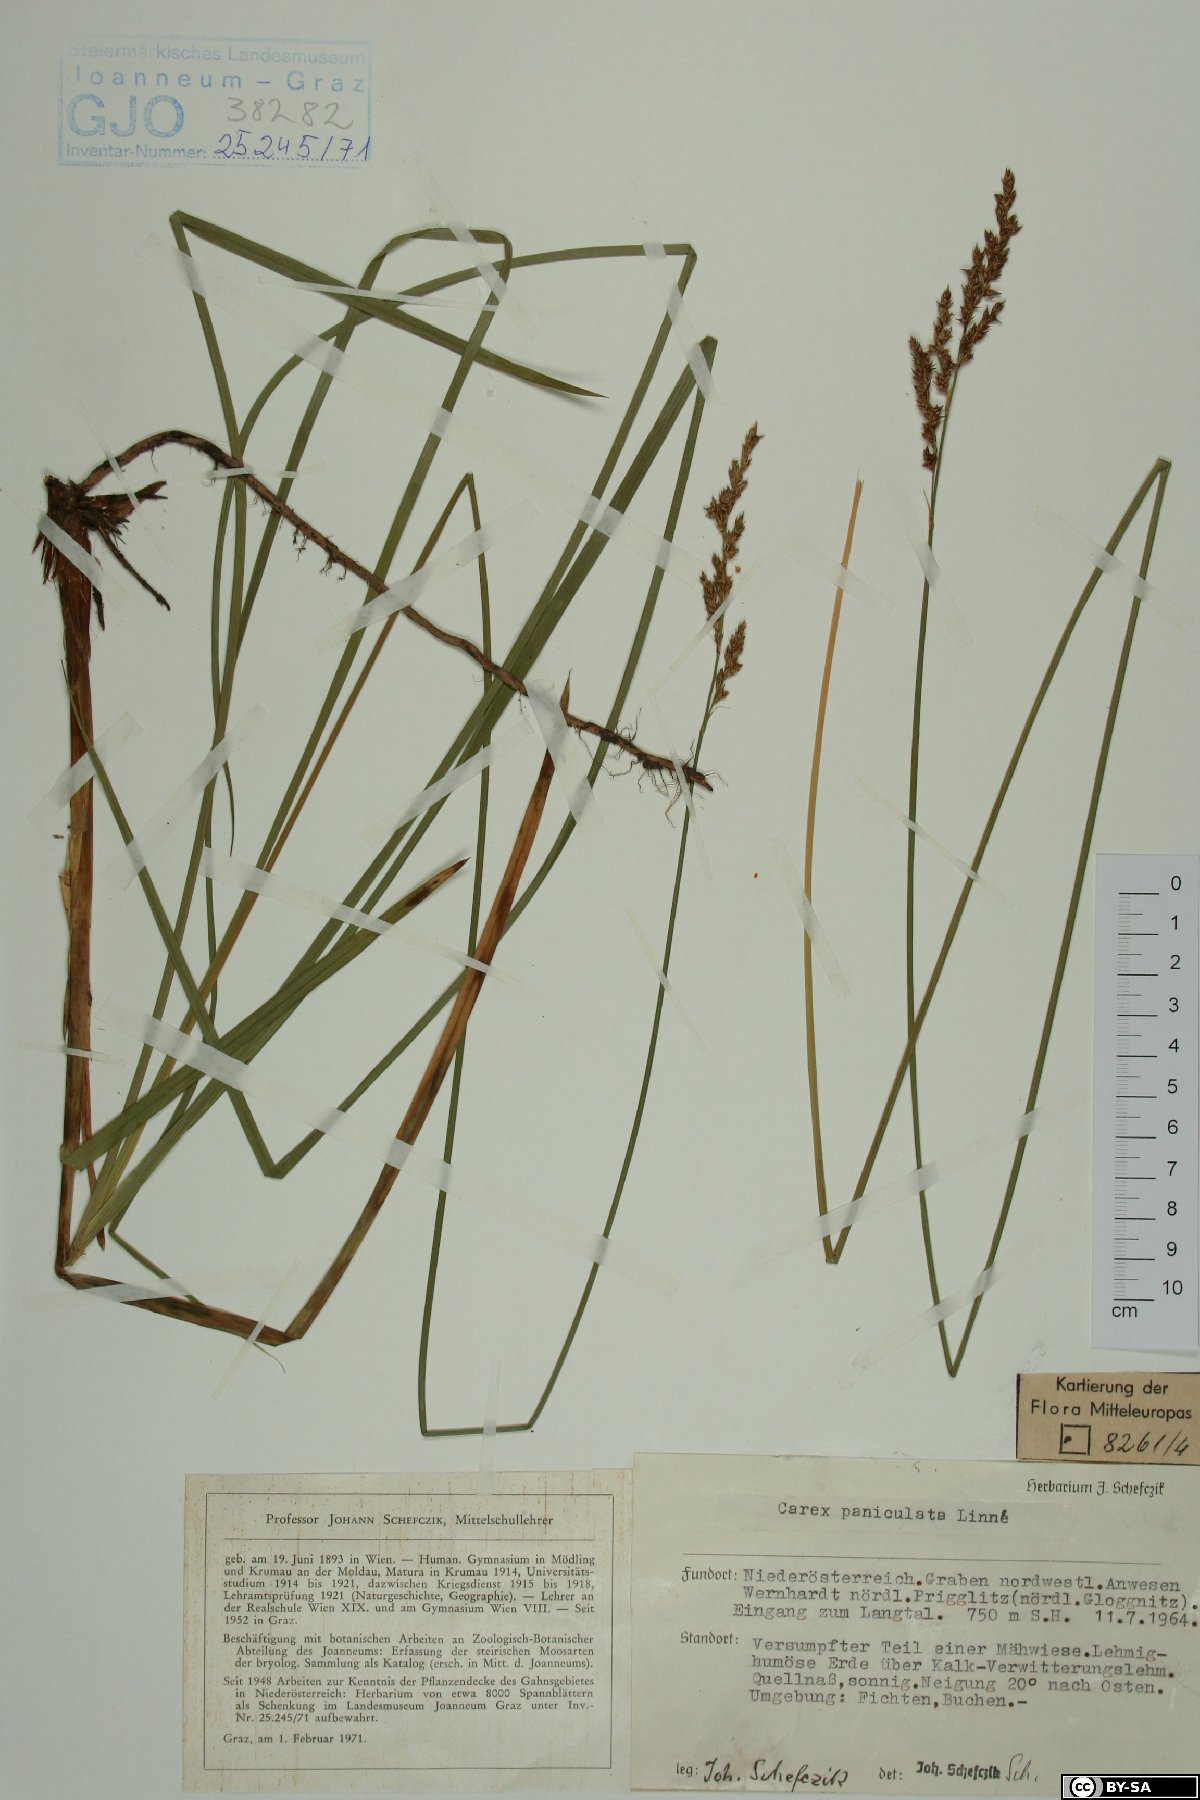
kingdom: Plantae
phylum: Tracheophyta
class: Liliopsida
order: Poales
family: Cyperaceae
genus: Carex
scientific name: Carex paniculata
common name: Greater tussock-sedge
